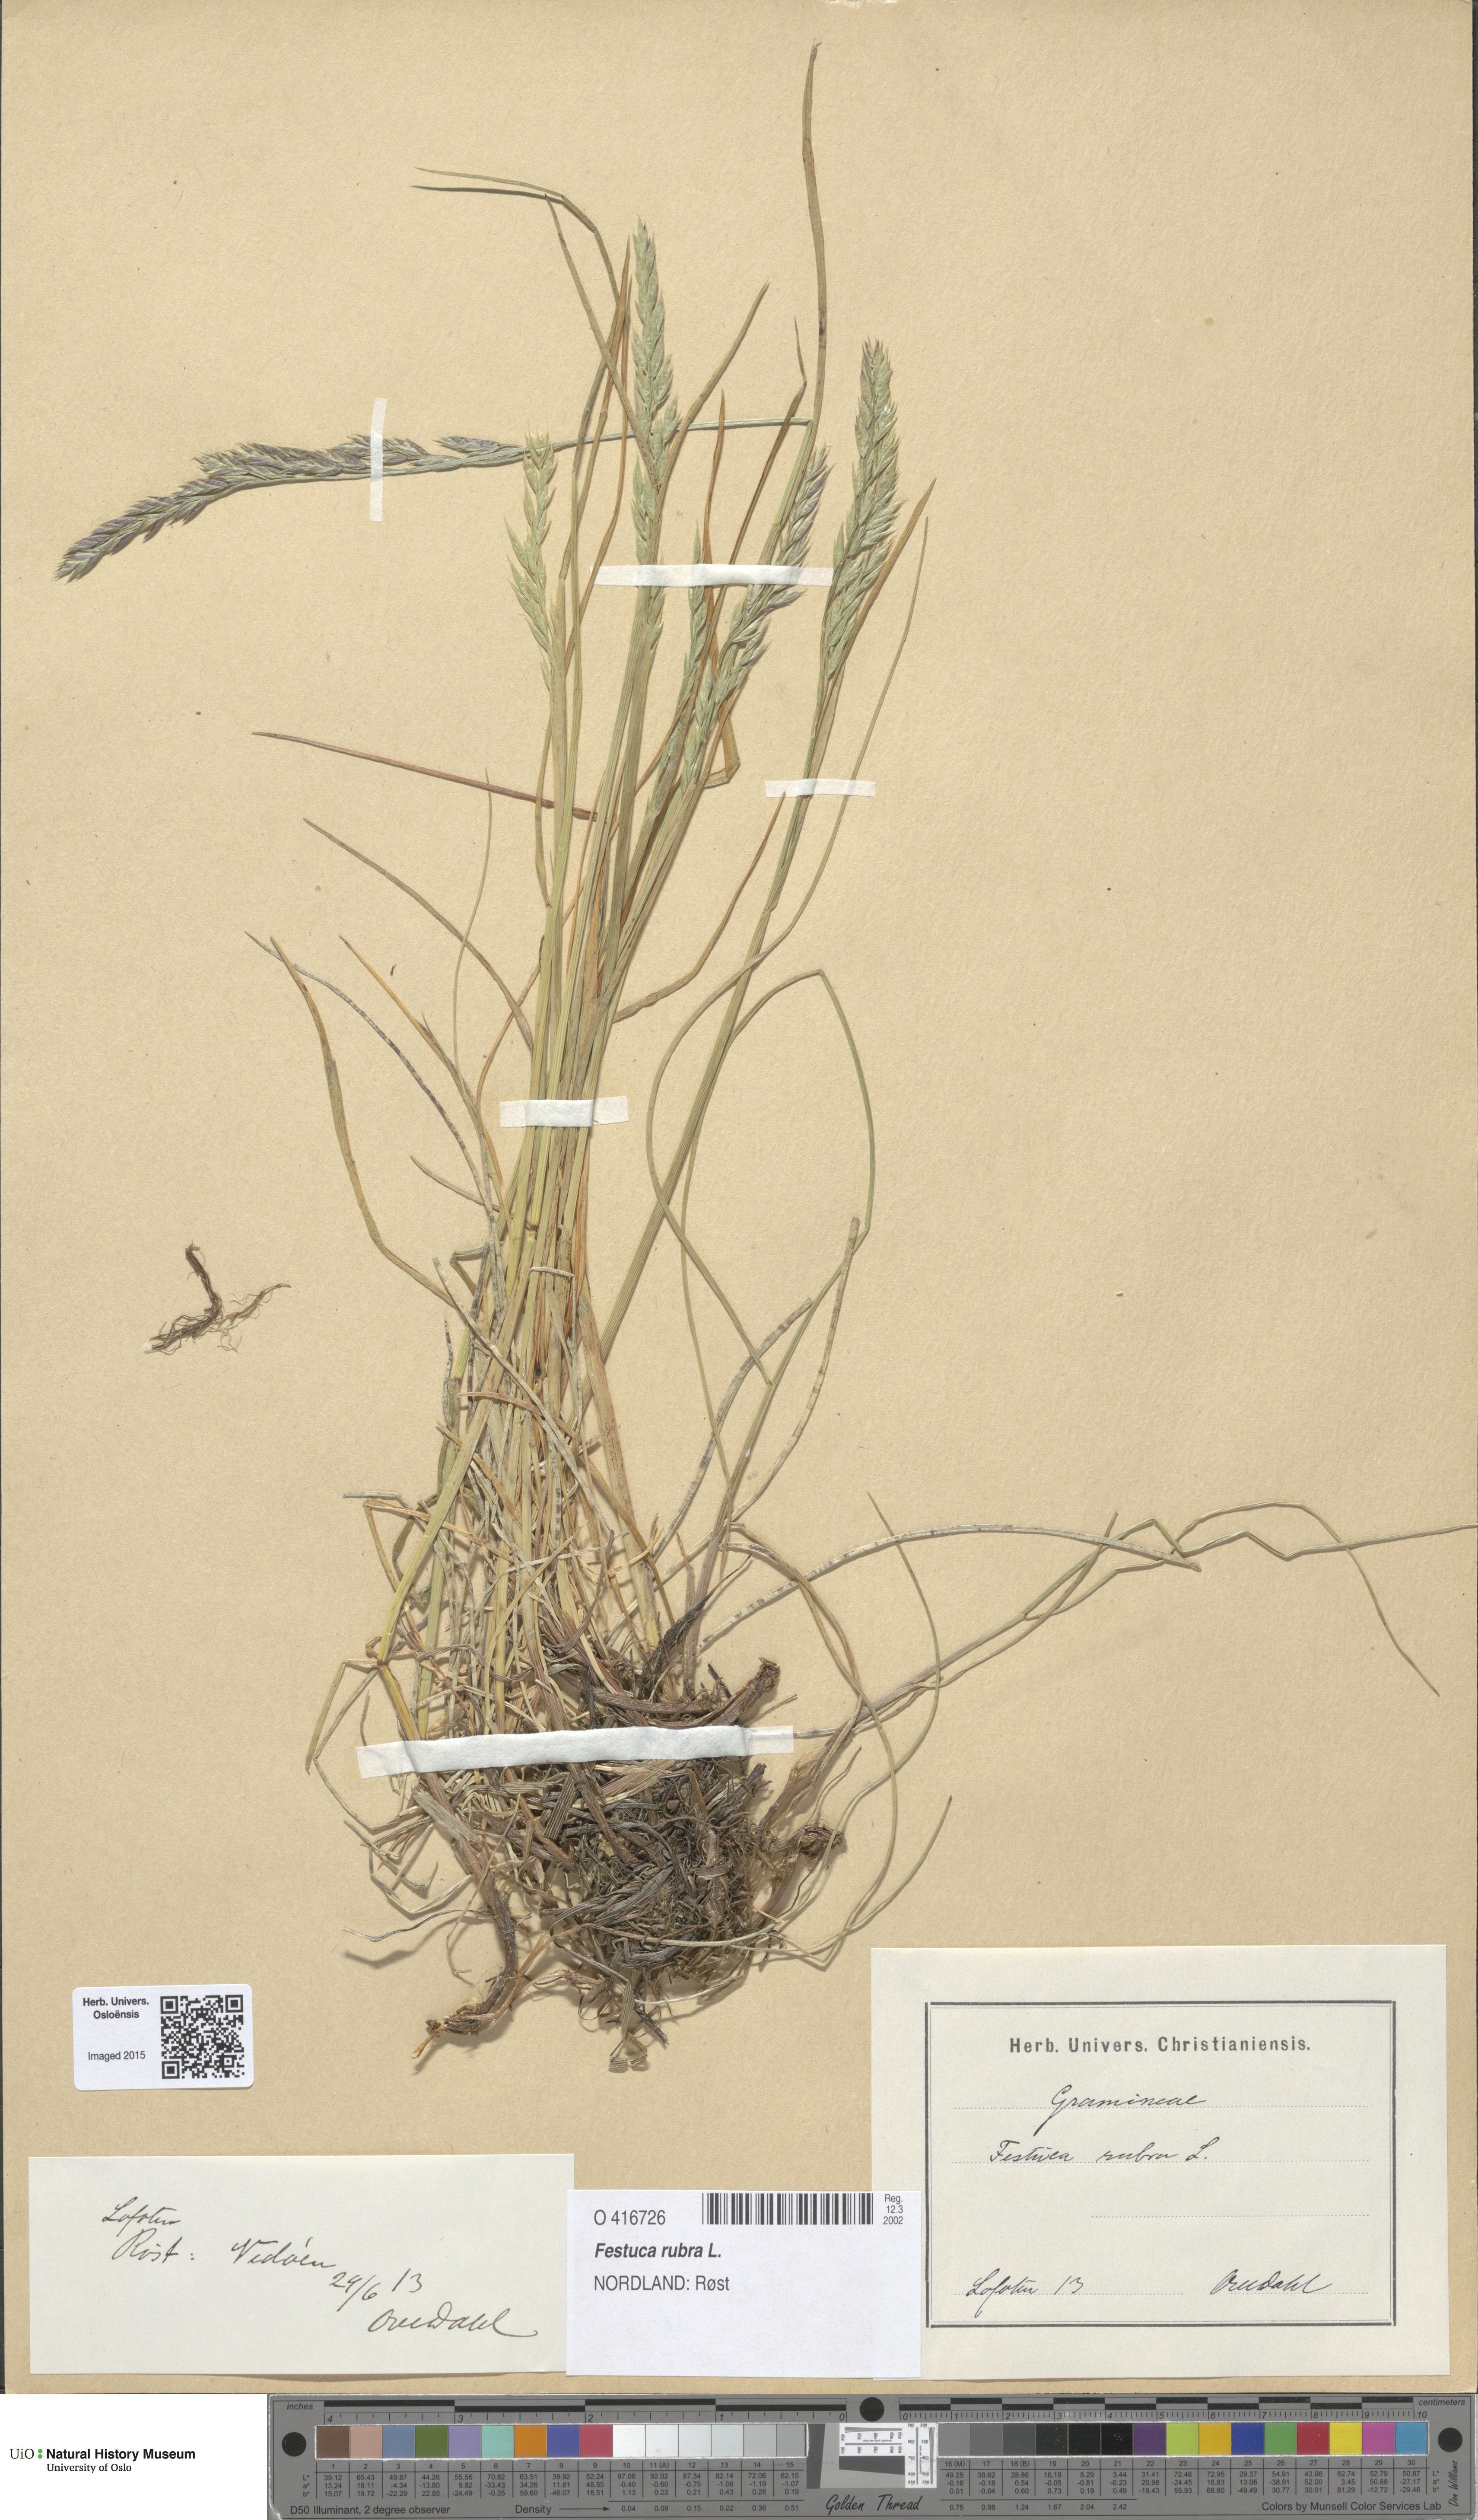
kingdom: Plantae
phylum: Tracheophyta
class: Liliopsida
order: Poales
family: Poaceae
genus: Festuca
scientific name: Festuca rubra
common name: Red fescue
